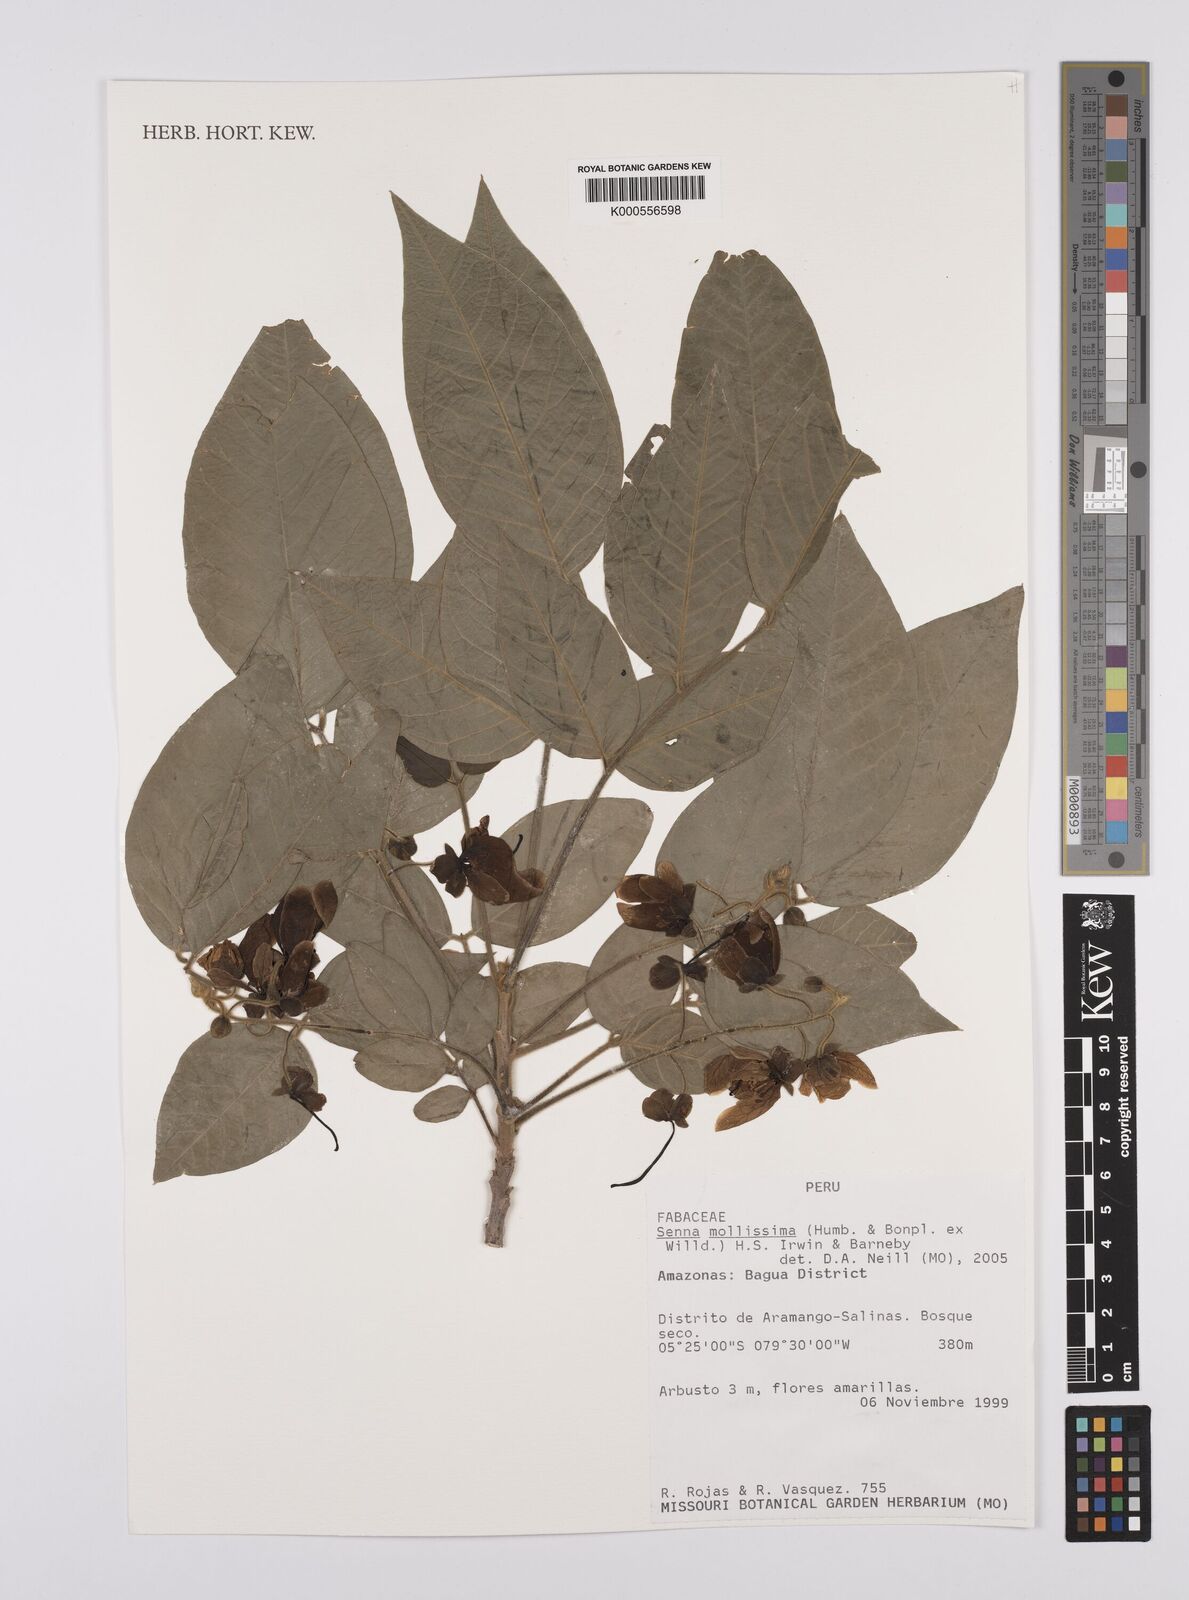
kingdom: Plantae
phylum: Tracheophyta
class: Magnoliopsida
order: Fabales
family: Fabaceae
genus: Senna
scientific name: Senna mollissima
